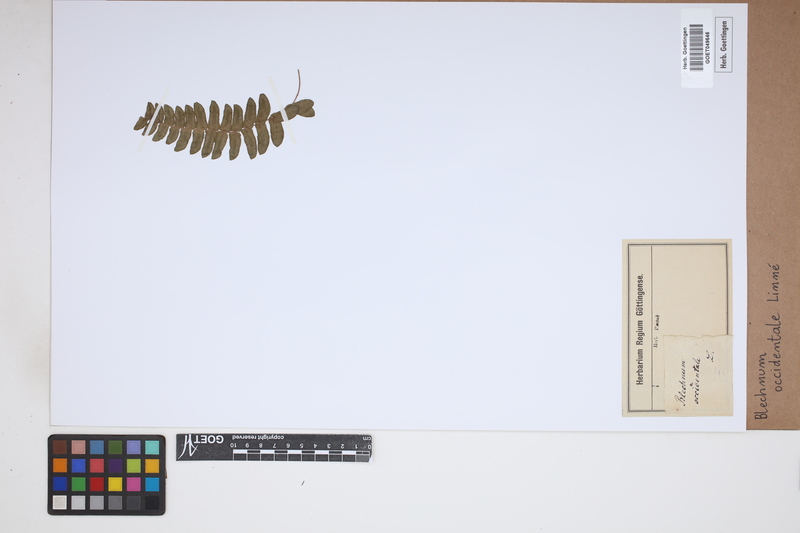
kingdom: Plantae
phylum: Tracheophyta
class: Polypodiopsida
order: Polypodiales
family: Blechnaceae
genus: Blechnum
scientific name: Blechnum occidentale
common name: Hammock fern
